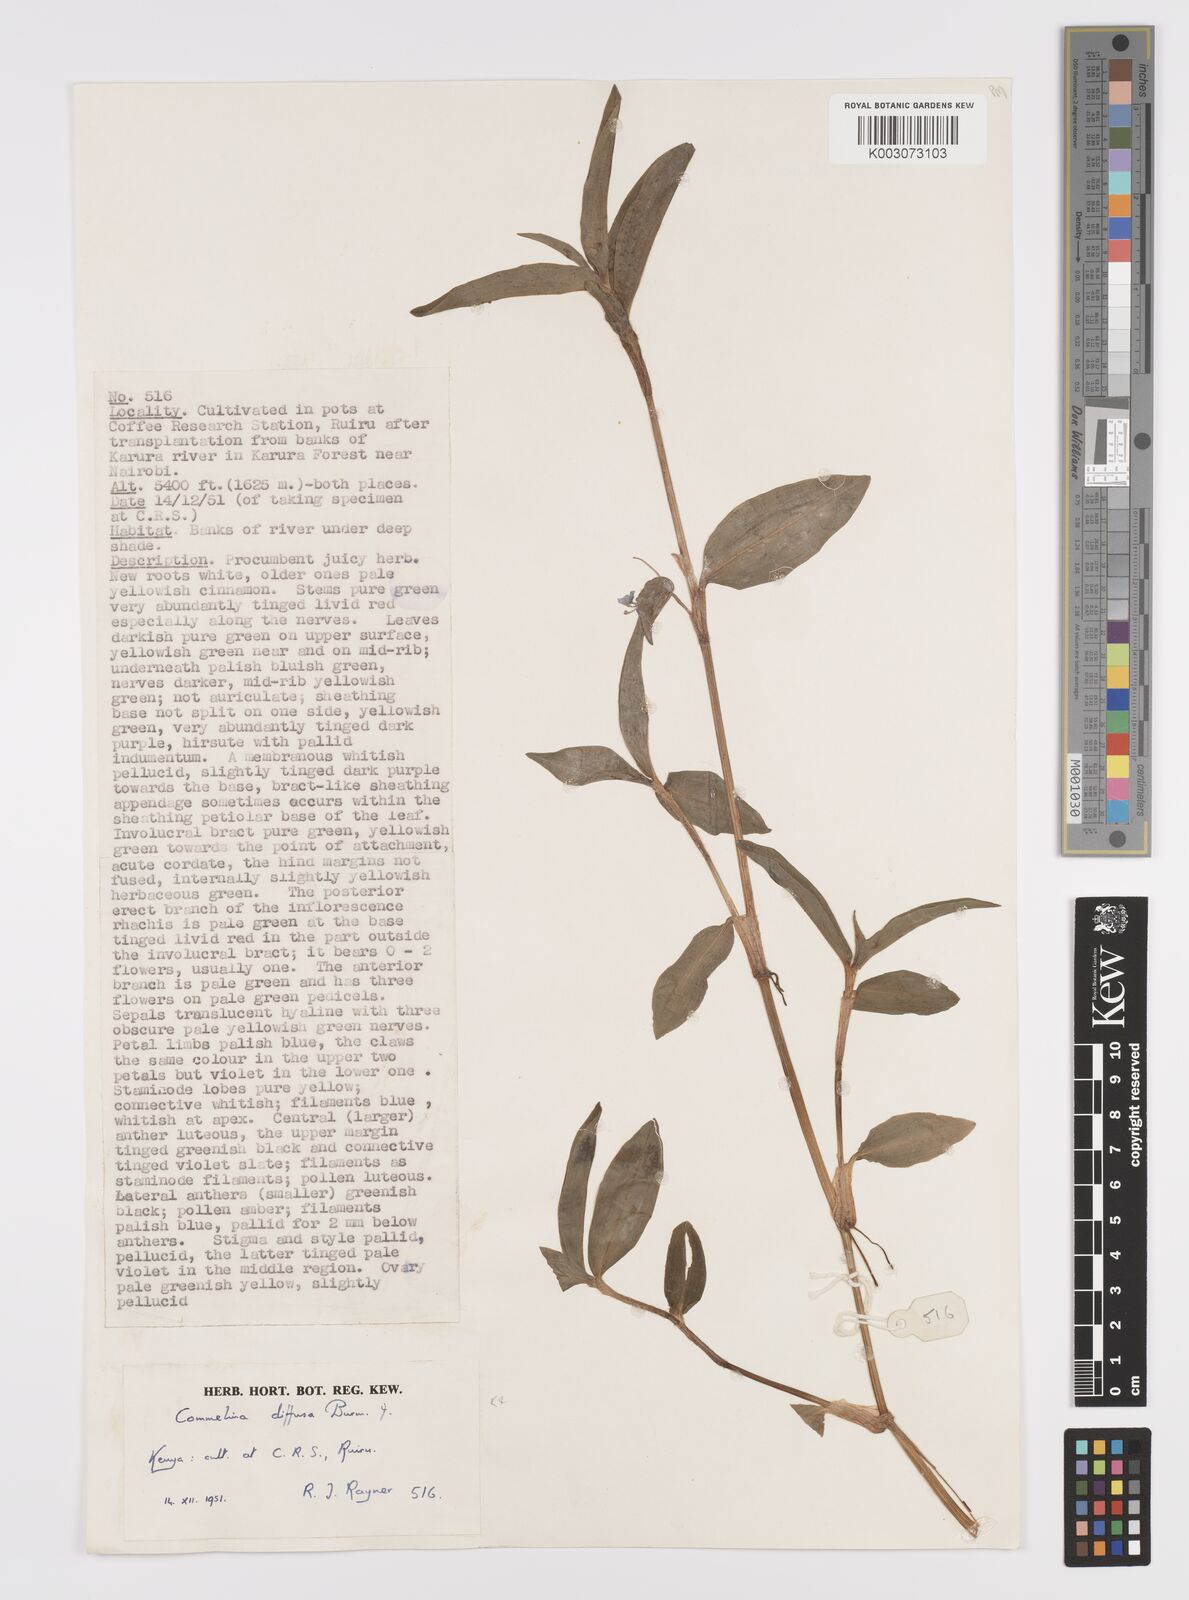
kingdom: Plantae
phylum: Tracheophyta
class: Liliopsida
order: Commelinales
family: Commelinaceae
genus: Commelina
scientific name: Commelina diffusa
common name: Climbing dayflower
